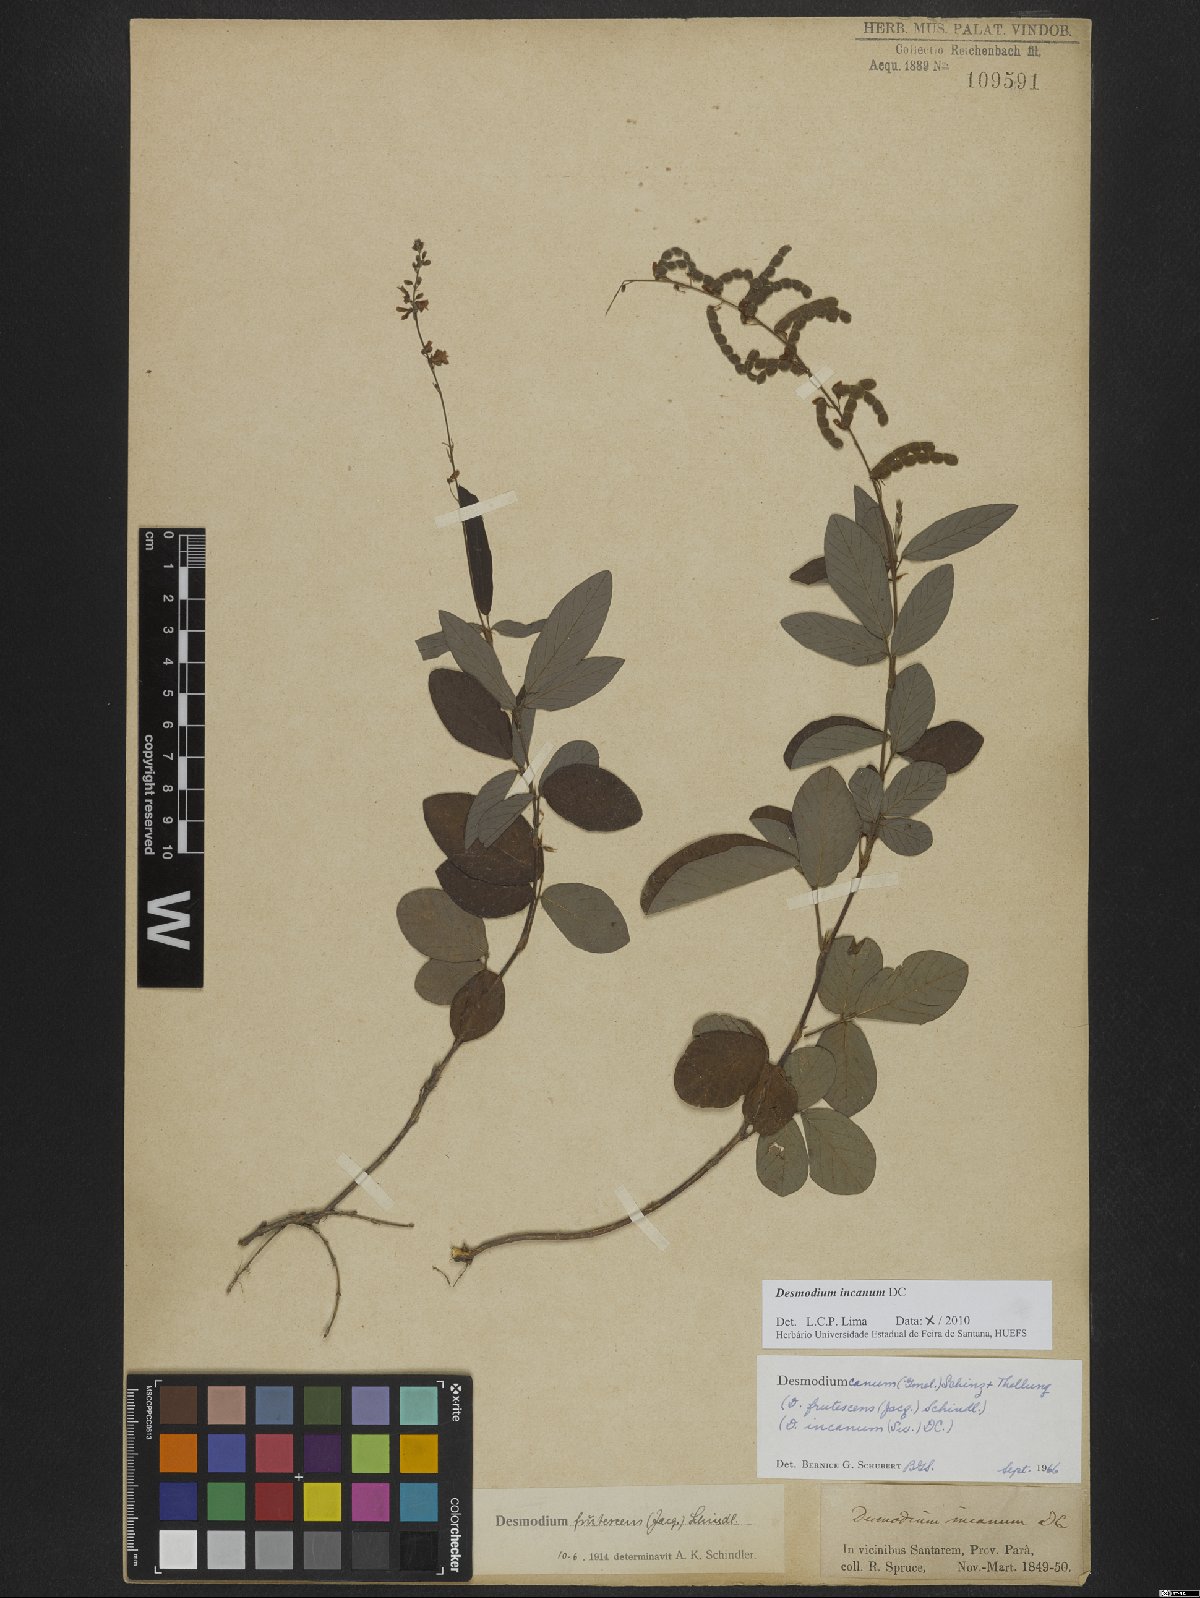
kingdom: Plantae
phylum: Tracheophyta
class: Magnoliopsida
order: Fabales
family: Fabaceae
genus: Desmodium
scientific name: Desmodium incanum
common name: Tickclover
